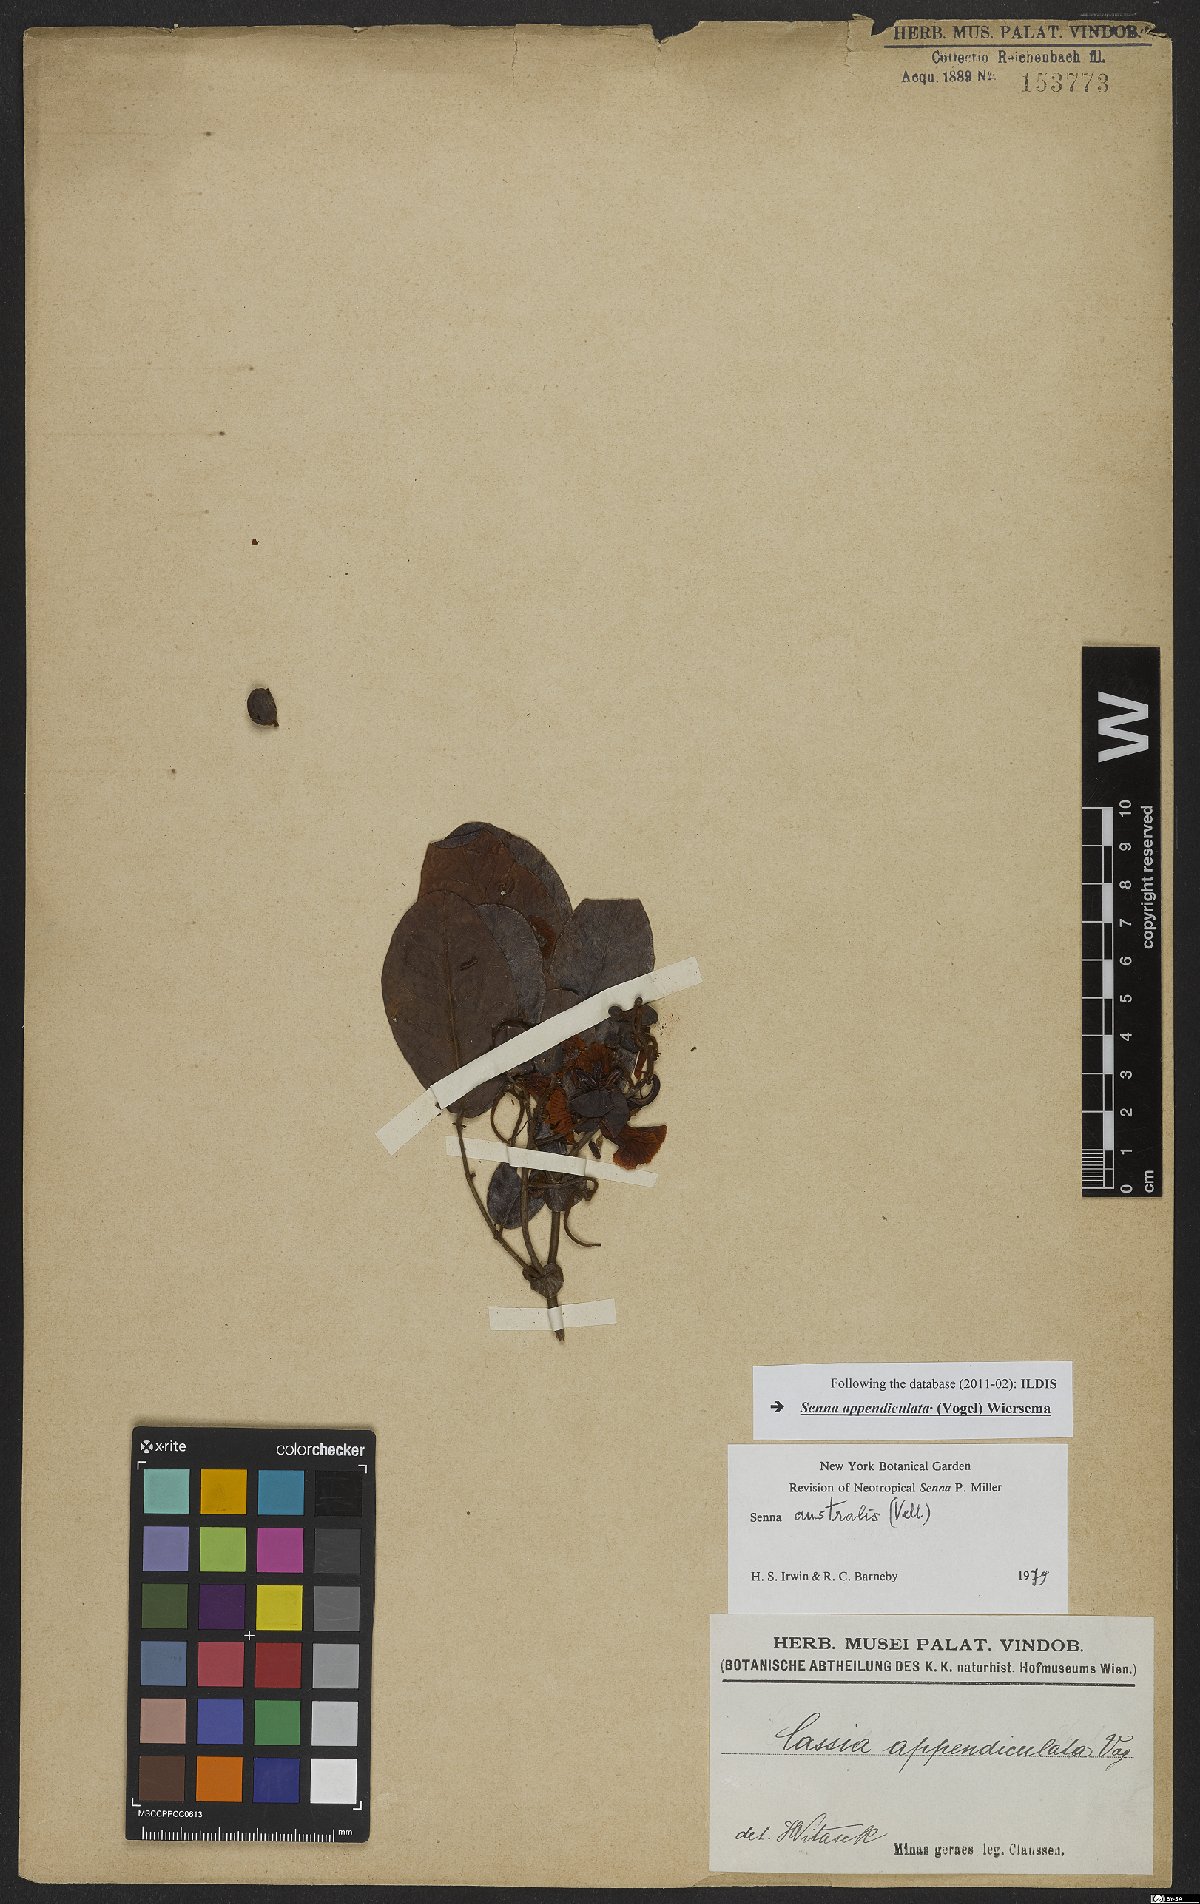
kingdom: Plantae
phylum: Tracheophyta
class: Magnoliopsida
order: Fabales
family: Fabaceae
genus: Senna
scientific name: Senna appendiculata
